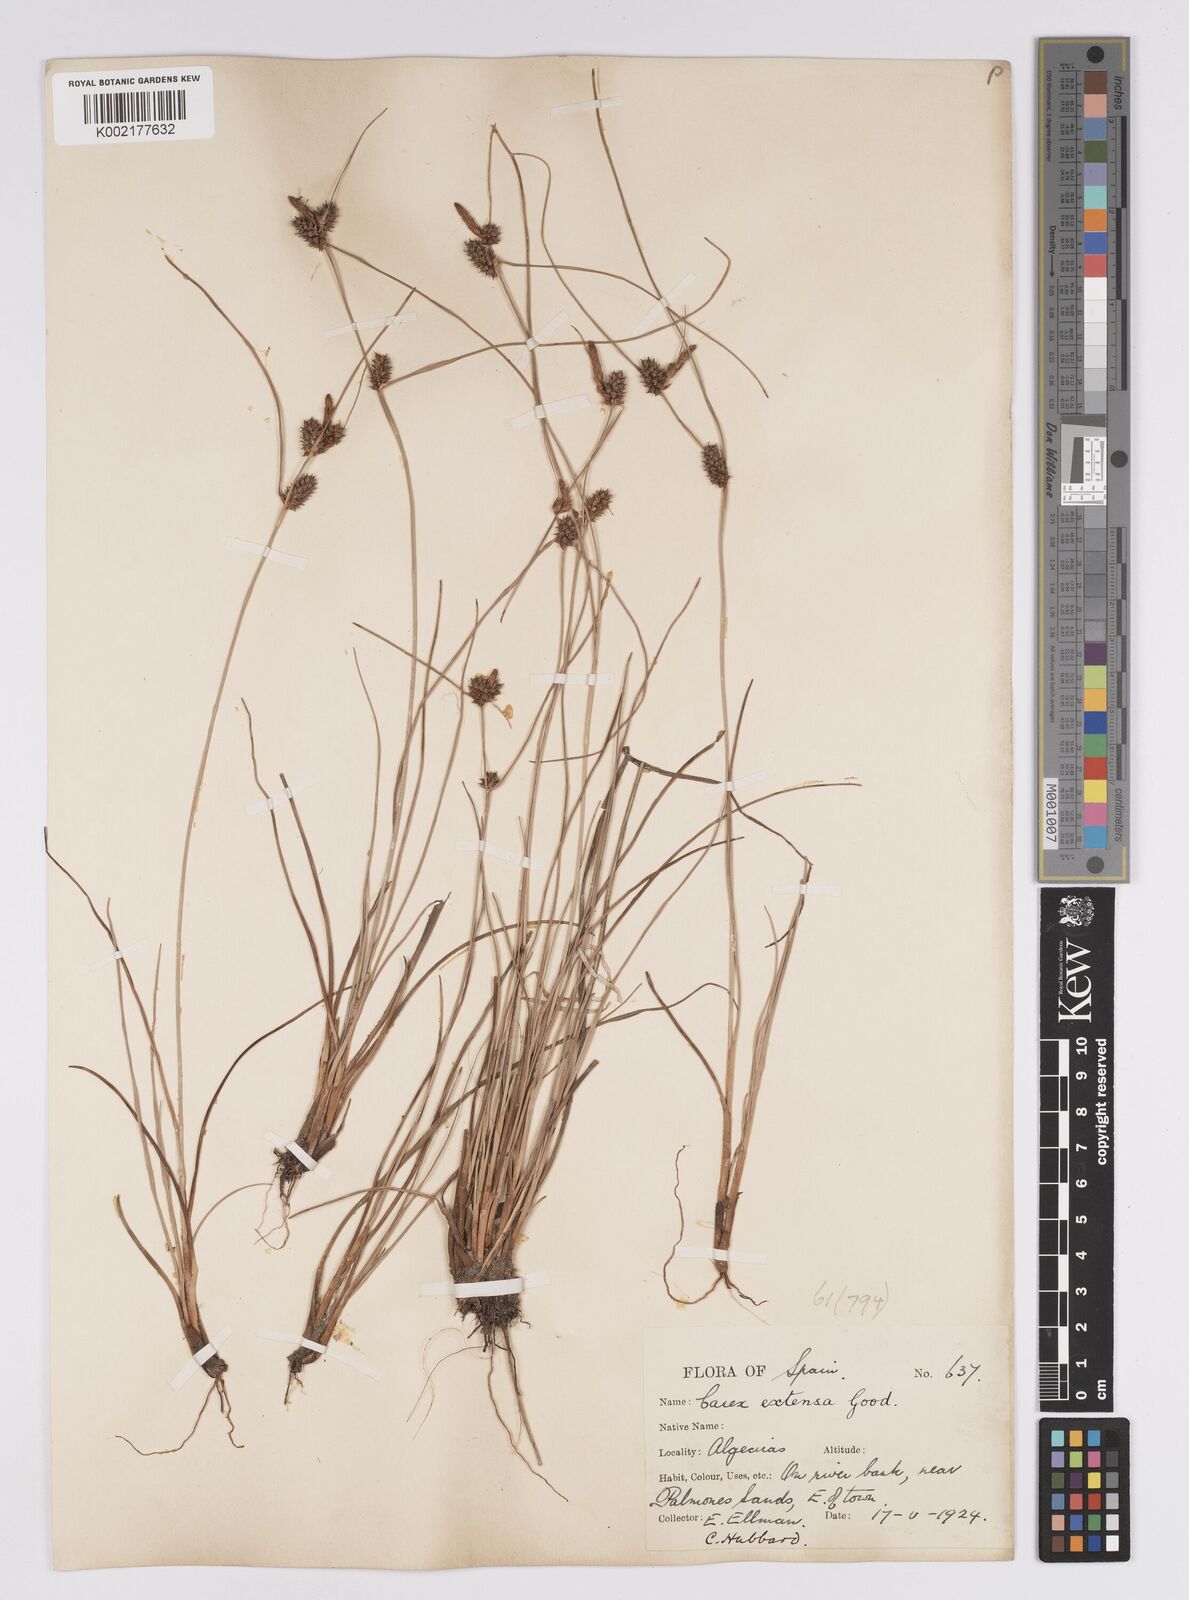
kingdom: Plantae
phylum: Tracheophyta
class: Liliopsida
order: Poales
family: Cyperaceae
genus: Carex
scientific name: Carex extensa
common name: Long-bracted sedge
